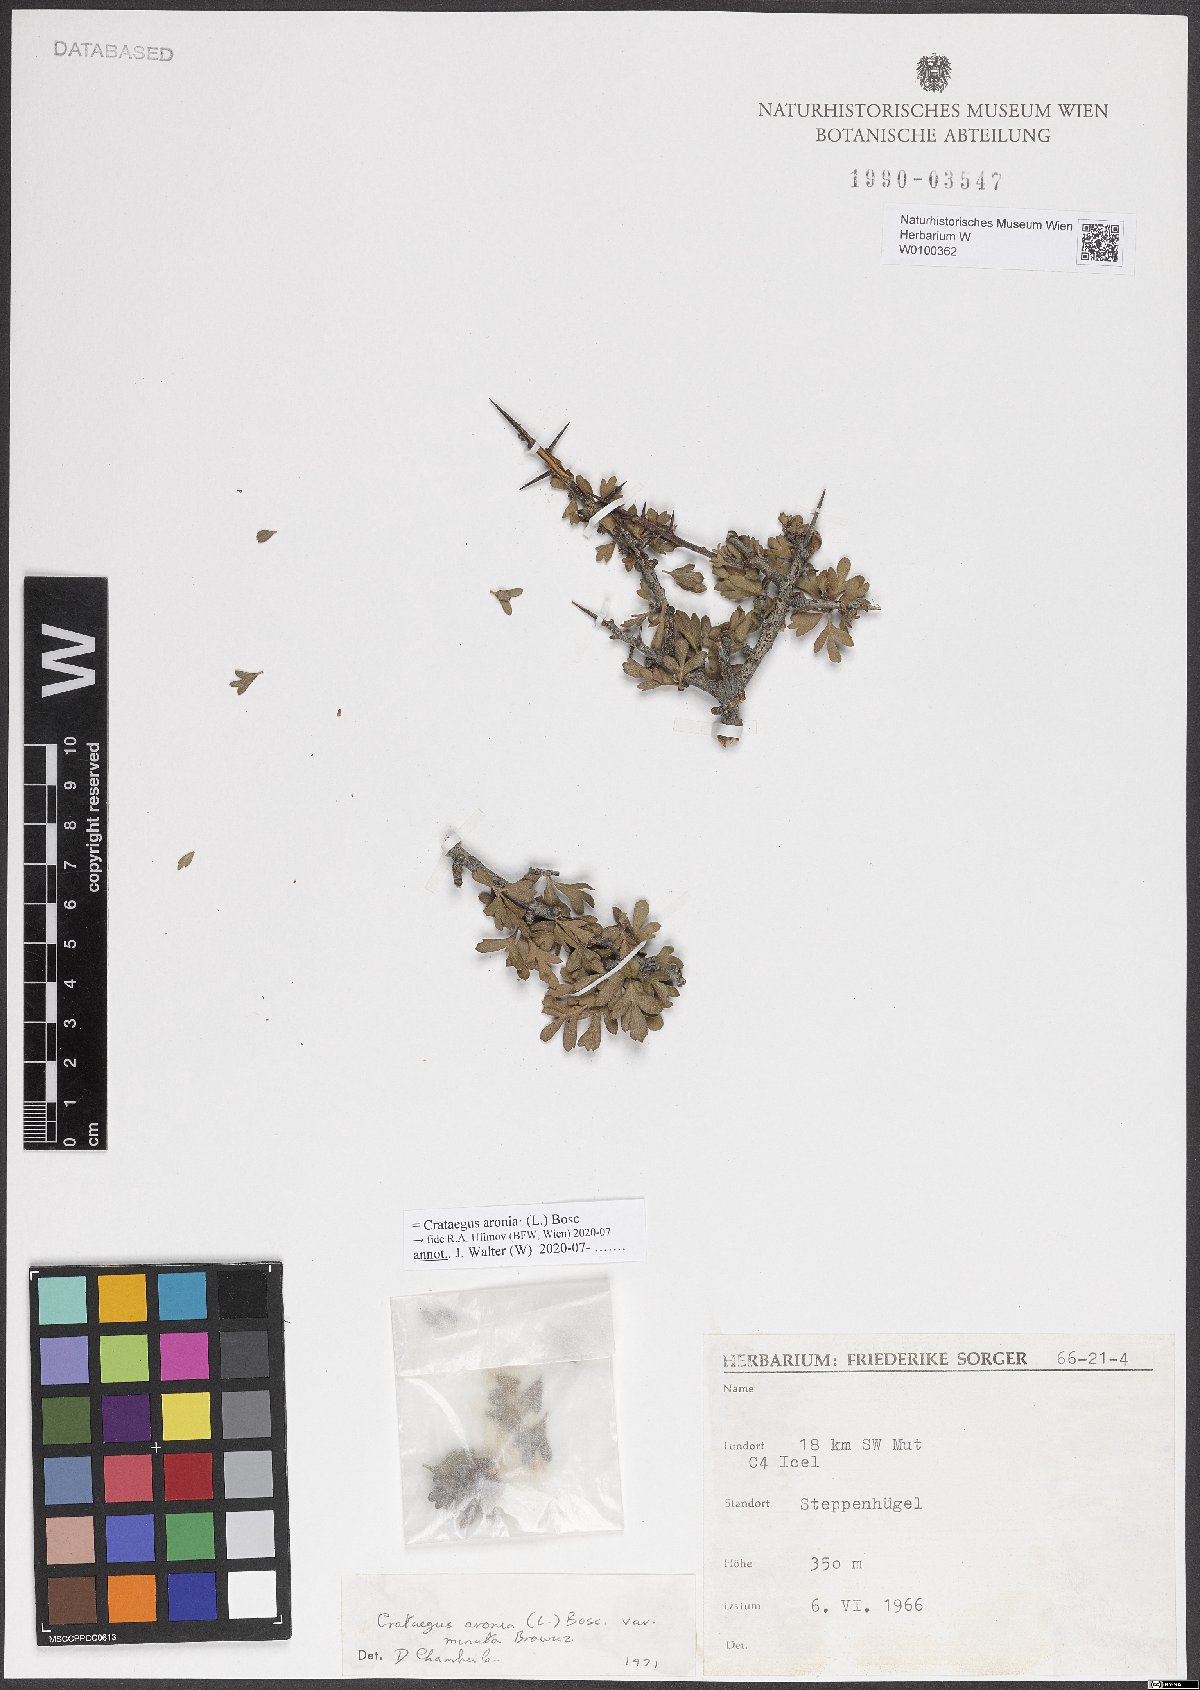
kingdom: Plantae
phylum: Tracheophyta
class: Magnoliopsida
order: Rosales
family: Rosaceae
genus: Crataegus
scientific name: Crataegus azarolus
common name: Azarole
